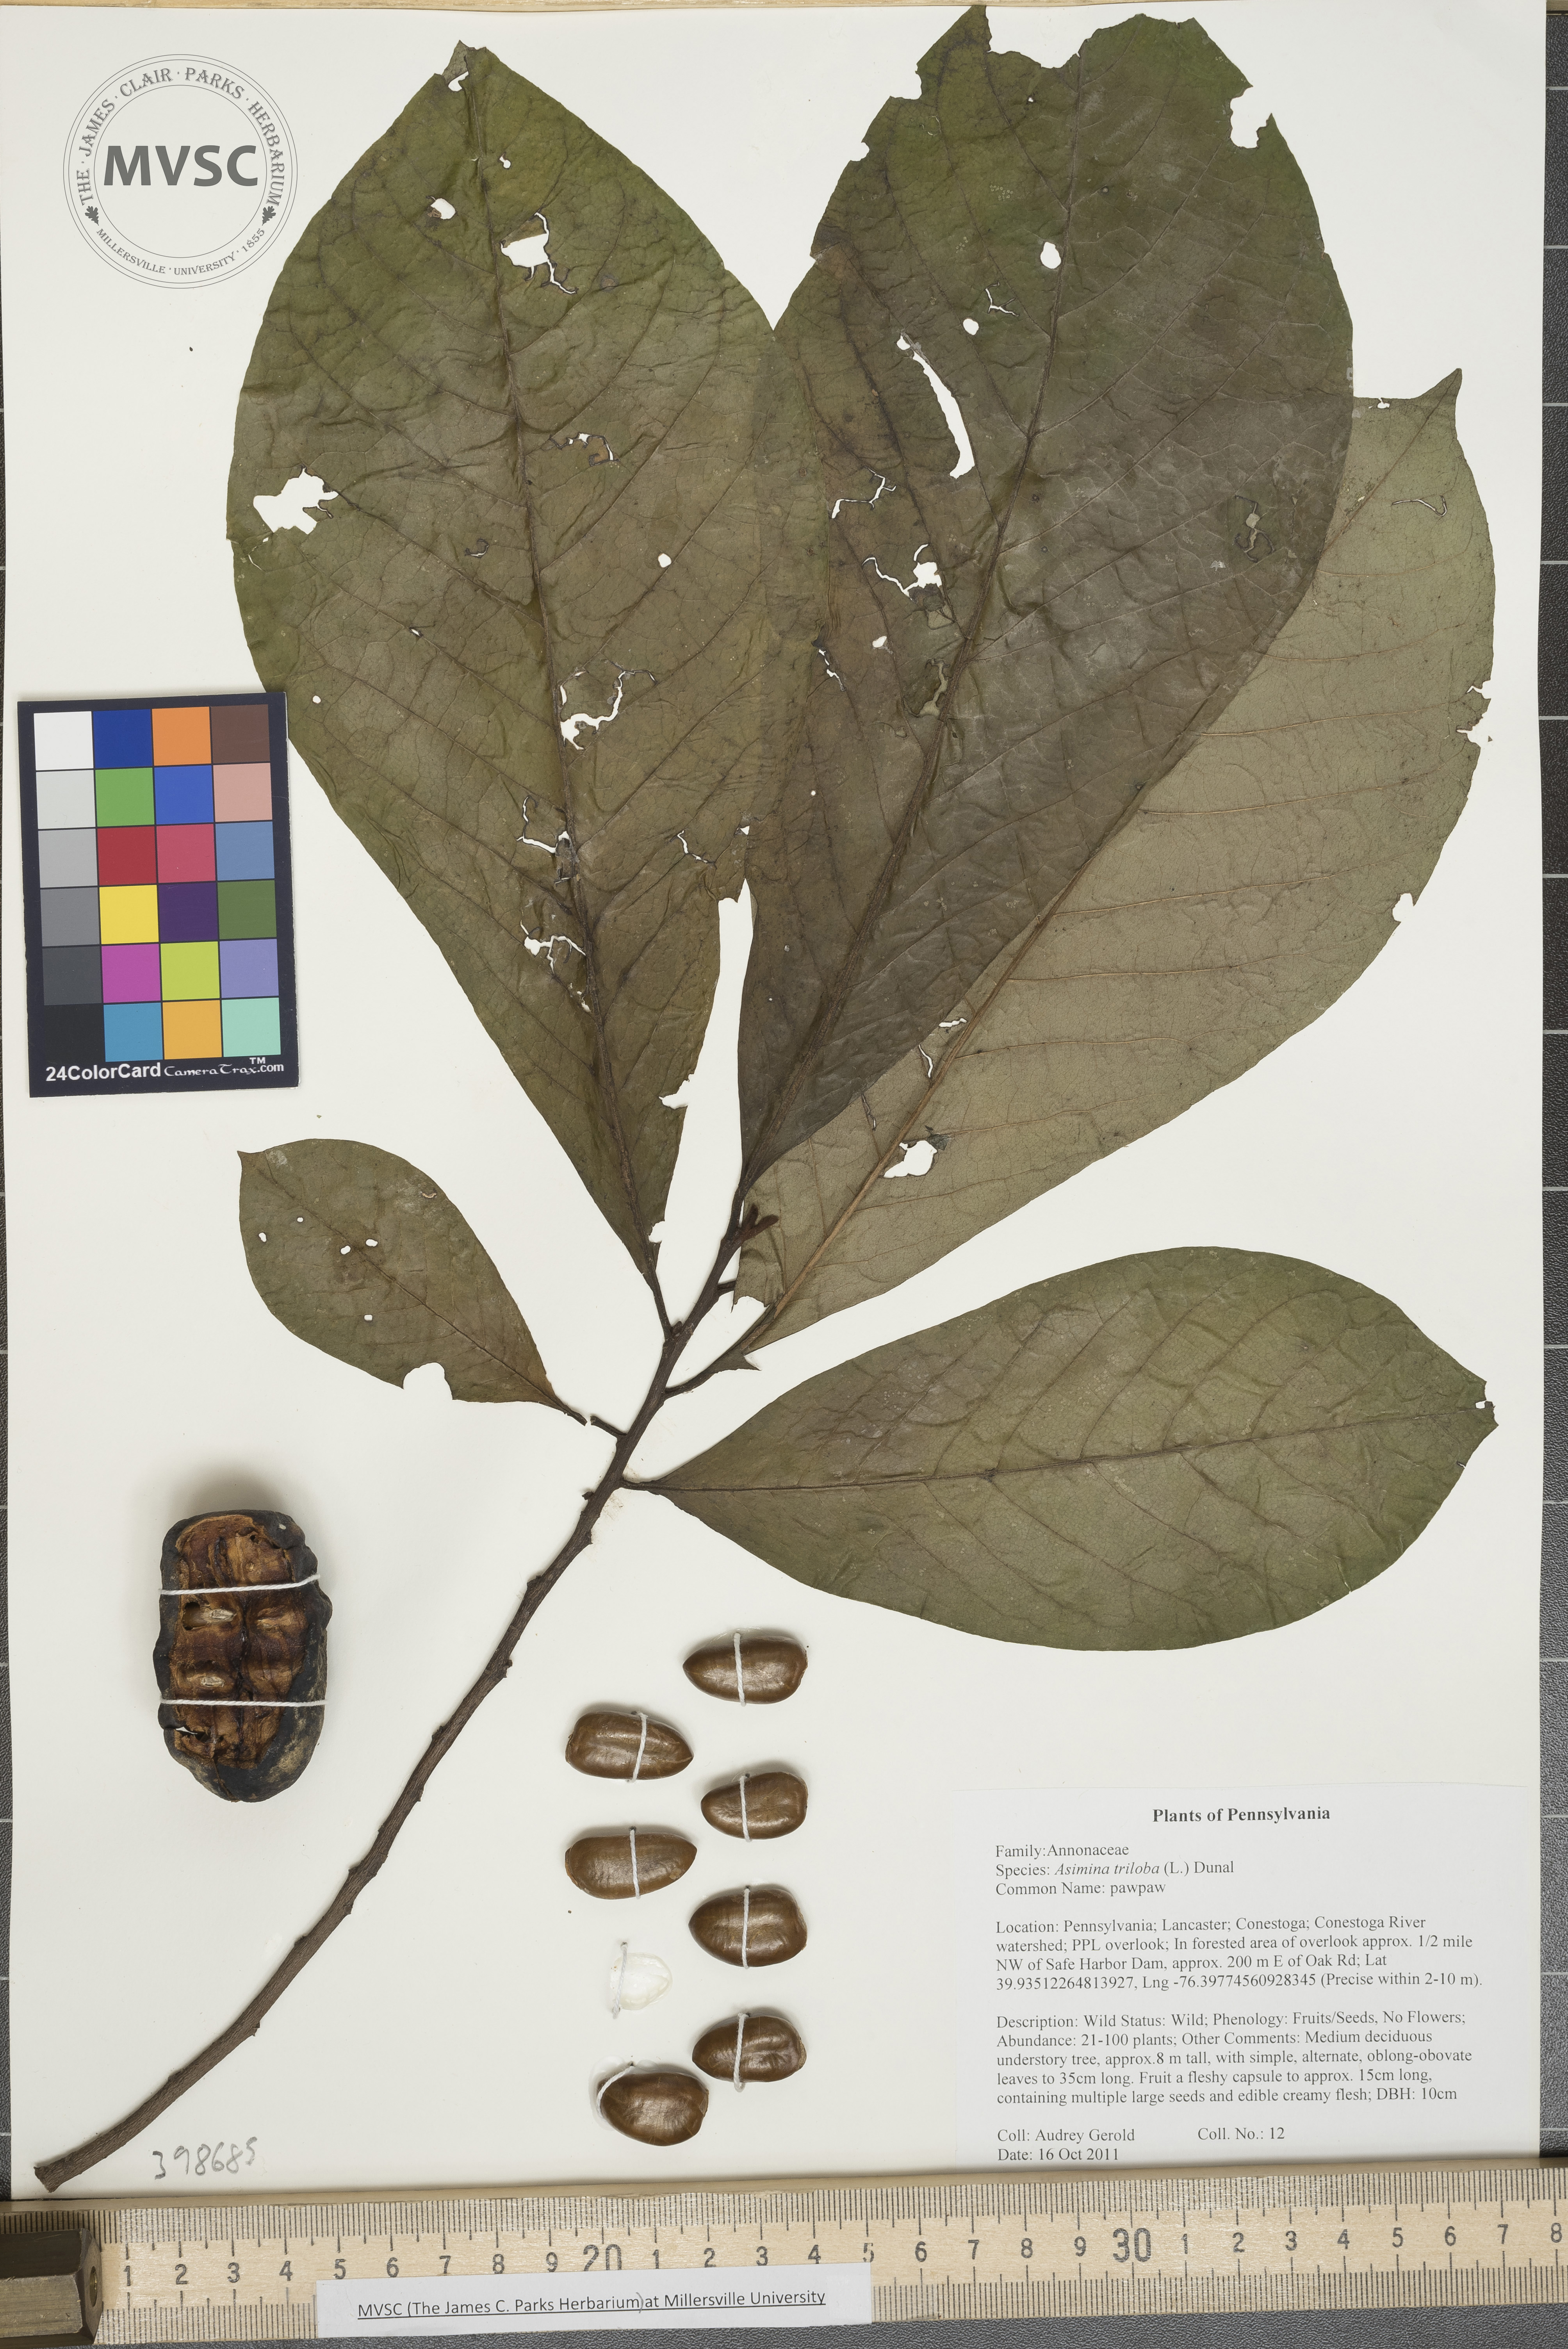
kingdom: Plantae
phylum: Tracheophyta
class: Magnoliopsida
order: Magnoliales
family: Annonaceae
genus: Asimina
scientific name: Asimina triloba
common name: Pawpaw
